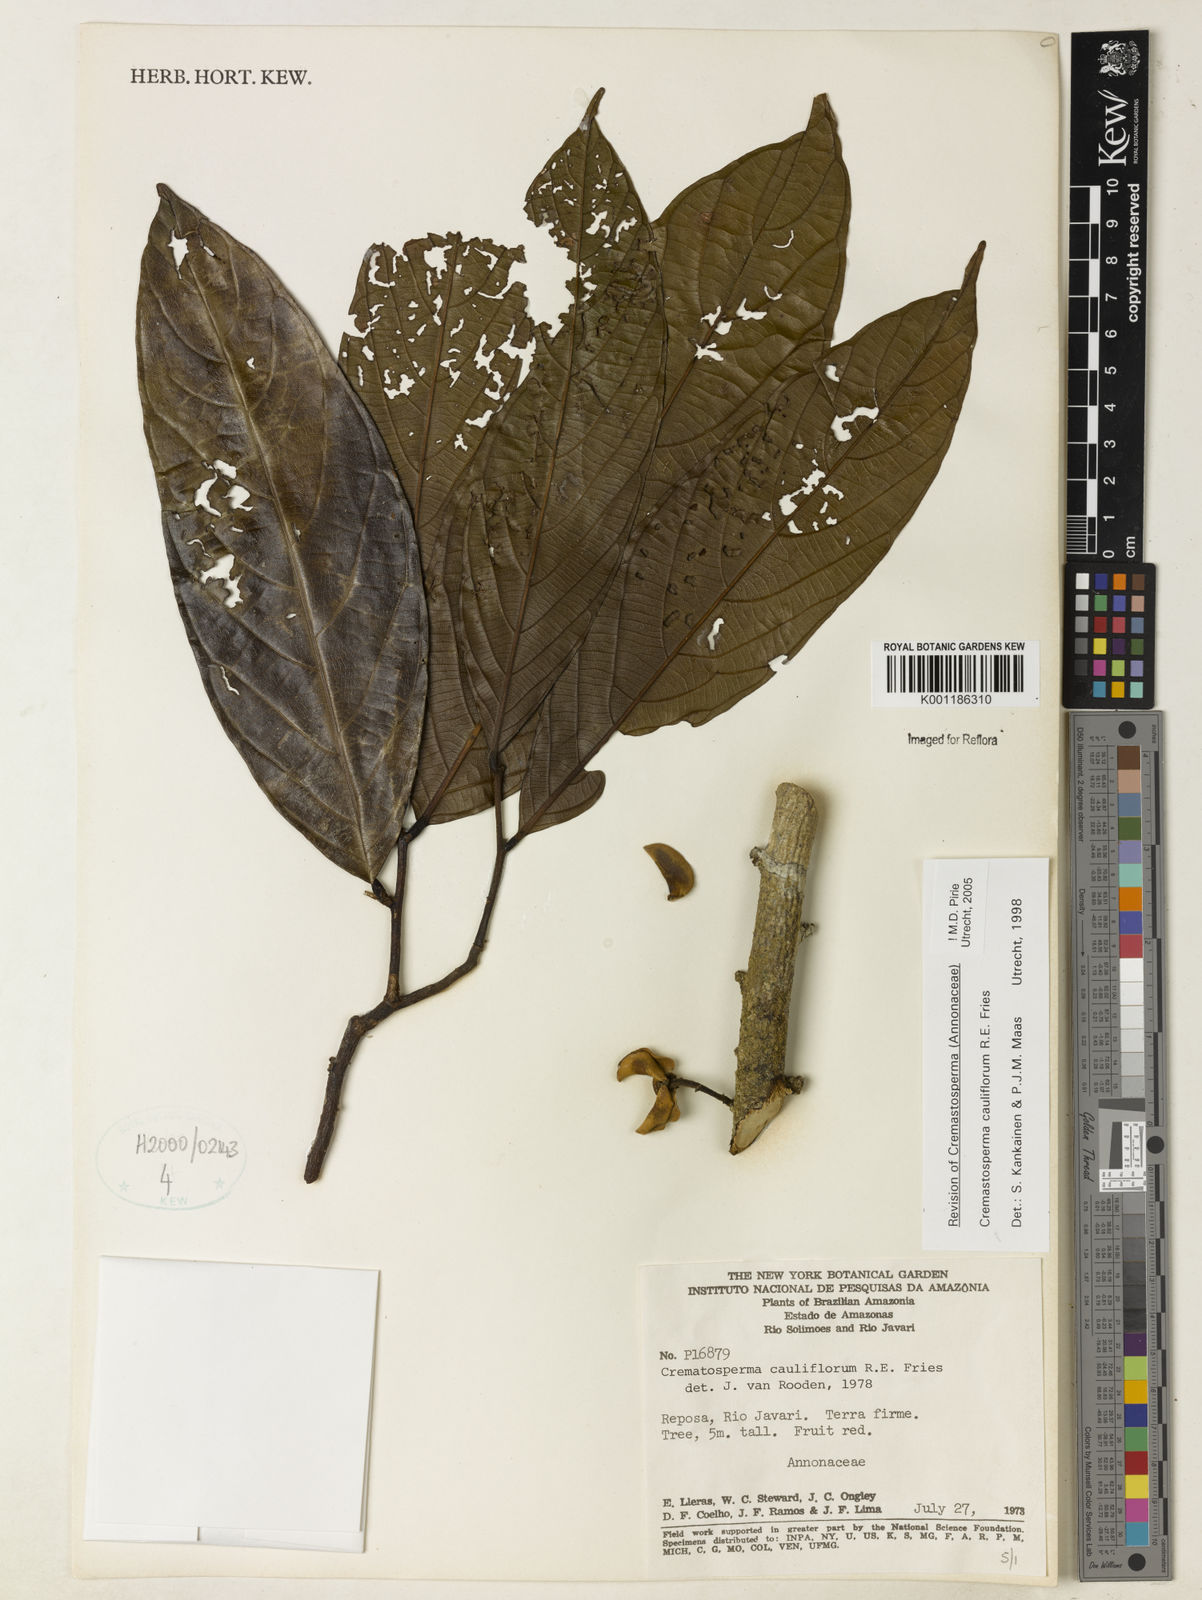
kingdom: Plantae
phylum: Tracheophyta
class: Magnoliopsida
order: Magnoliales
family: Annonaceae
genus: Cremastosperma
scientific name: Cremastosperma cauliflorum
